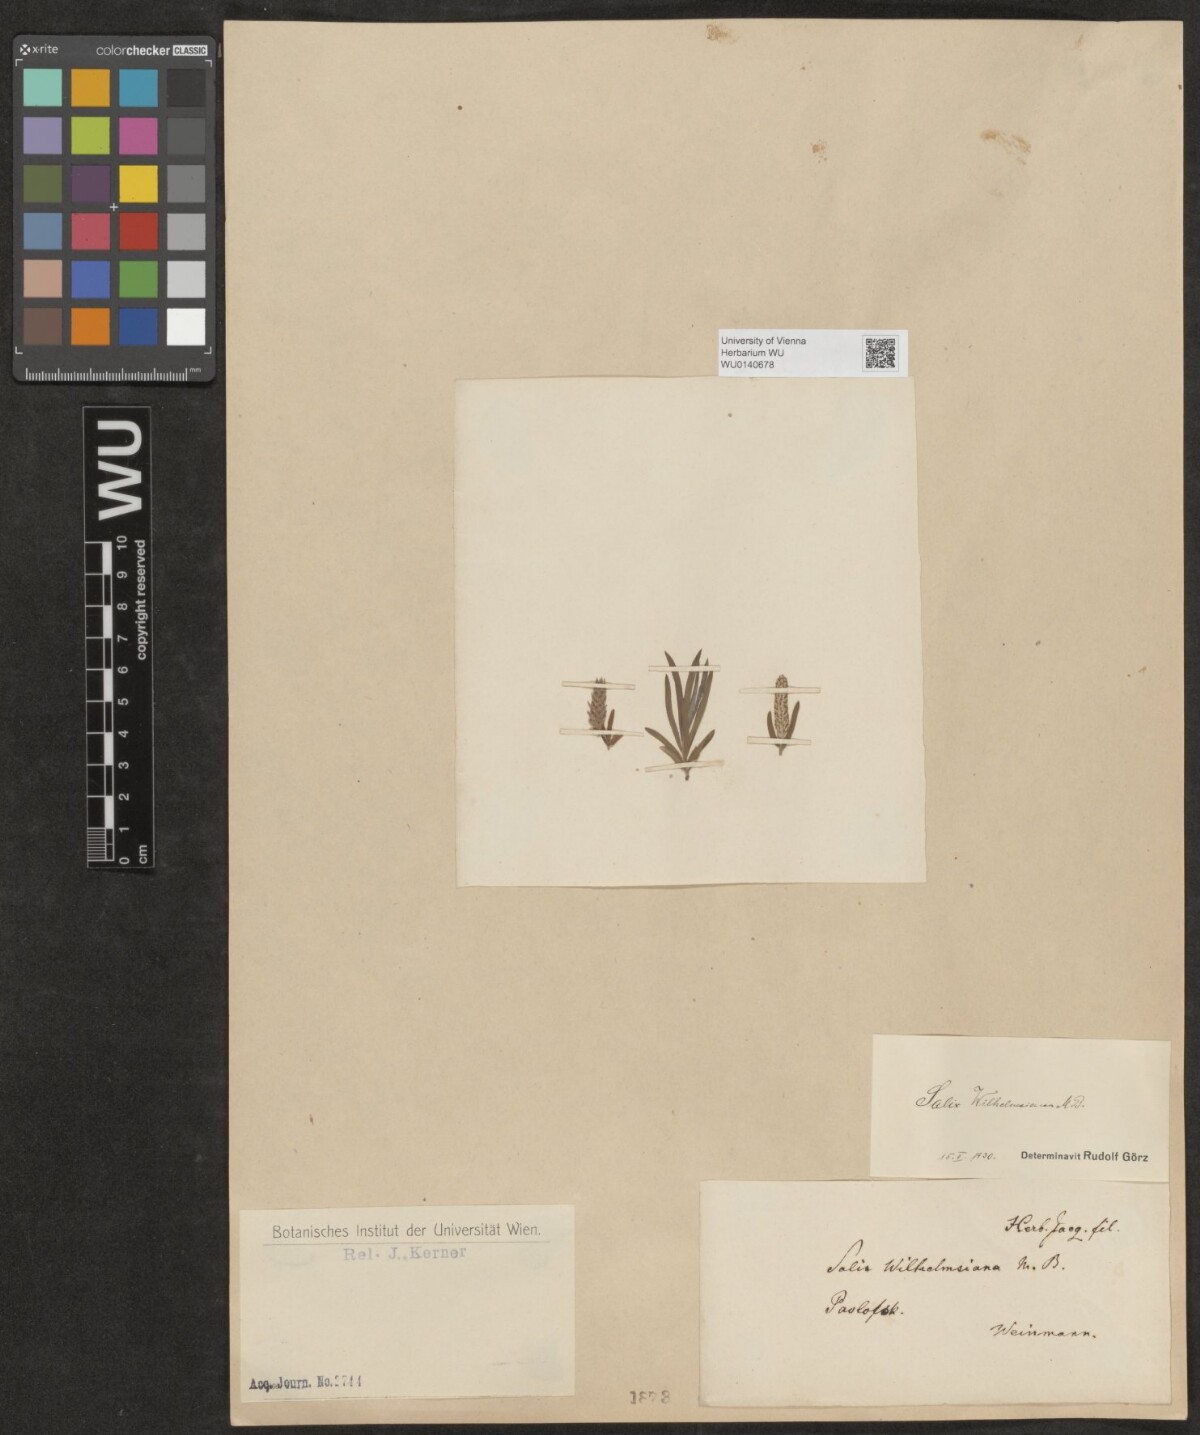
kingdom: Plantae
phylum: Tracheophyta
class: Magnoliopsida
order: Malpighiales
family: Salicaceae
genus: Salix
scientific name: Salix wilhelmsiana
